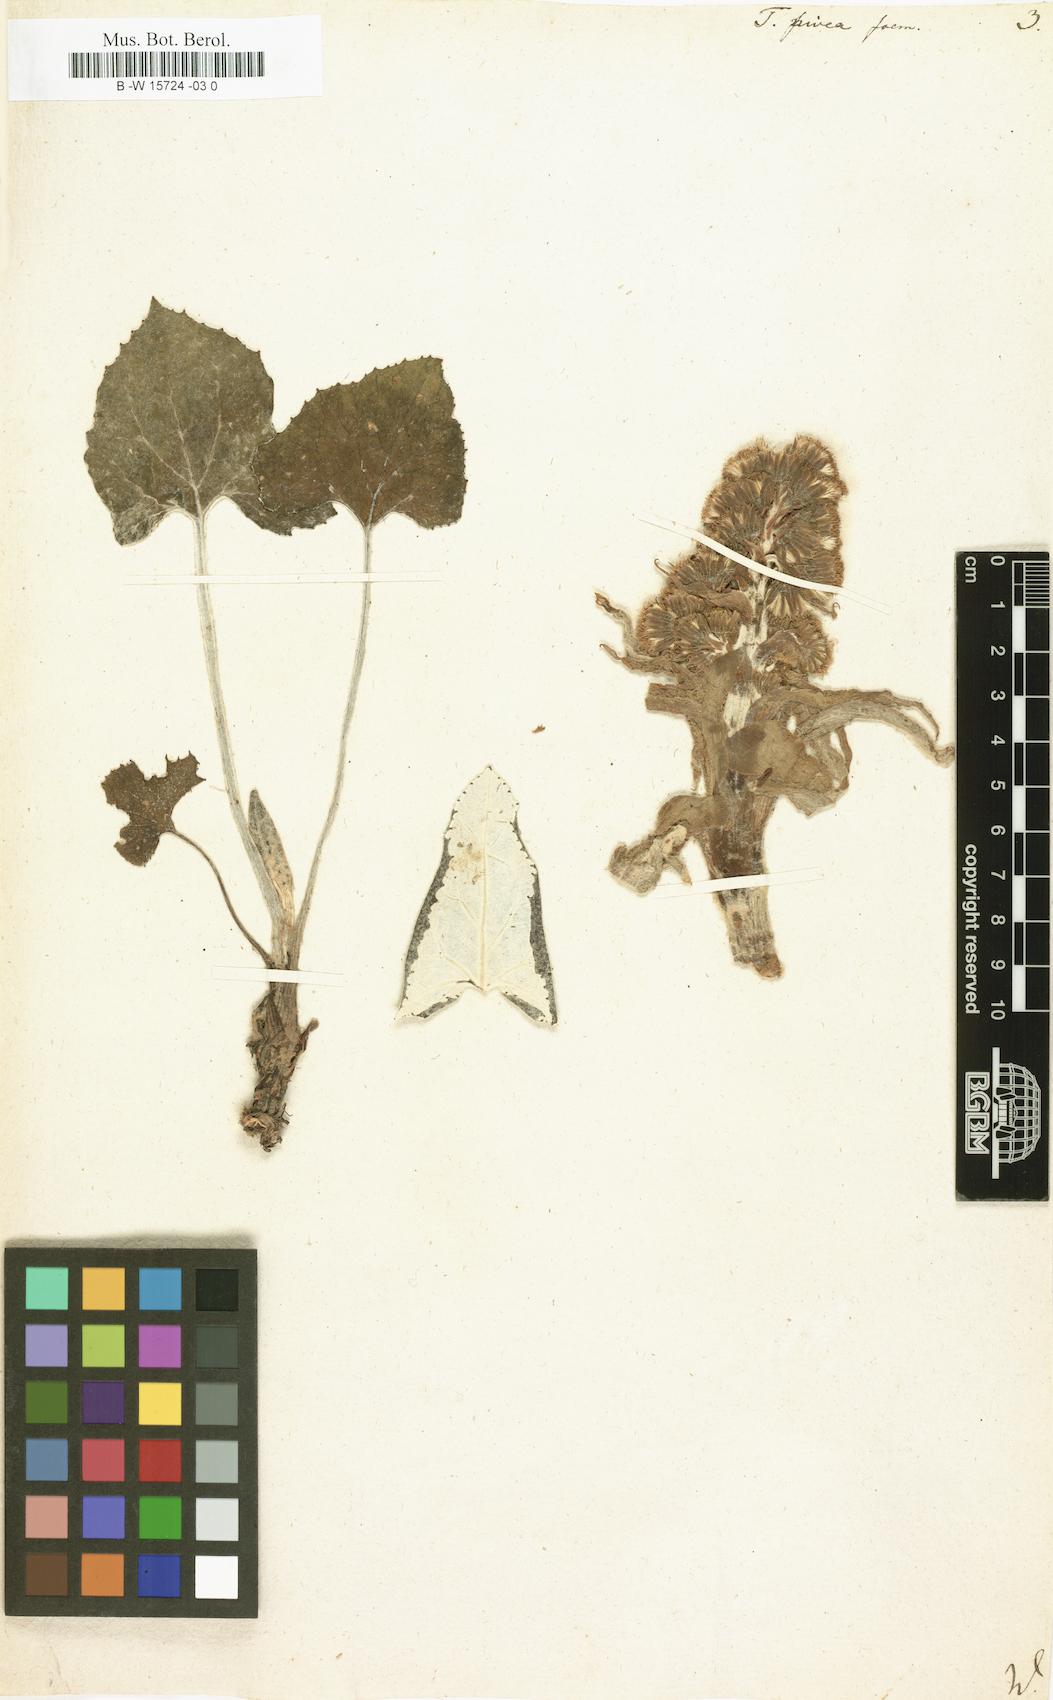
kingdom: Plantae
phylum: Tracheophyta
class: Magnoliopsida
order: Asterales
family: Asteraceae
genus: Petasites
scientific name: Petasites paradoxus
